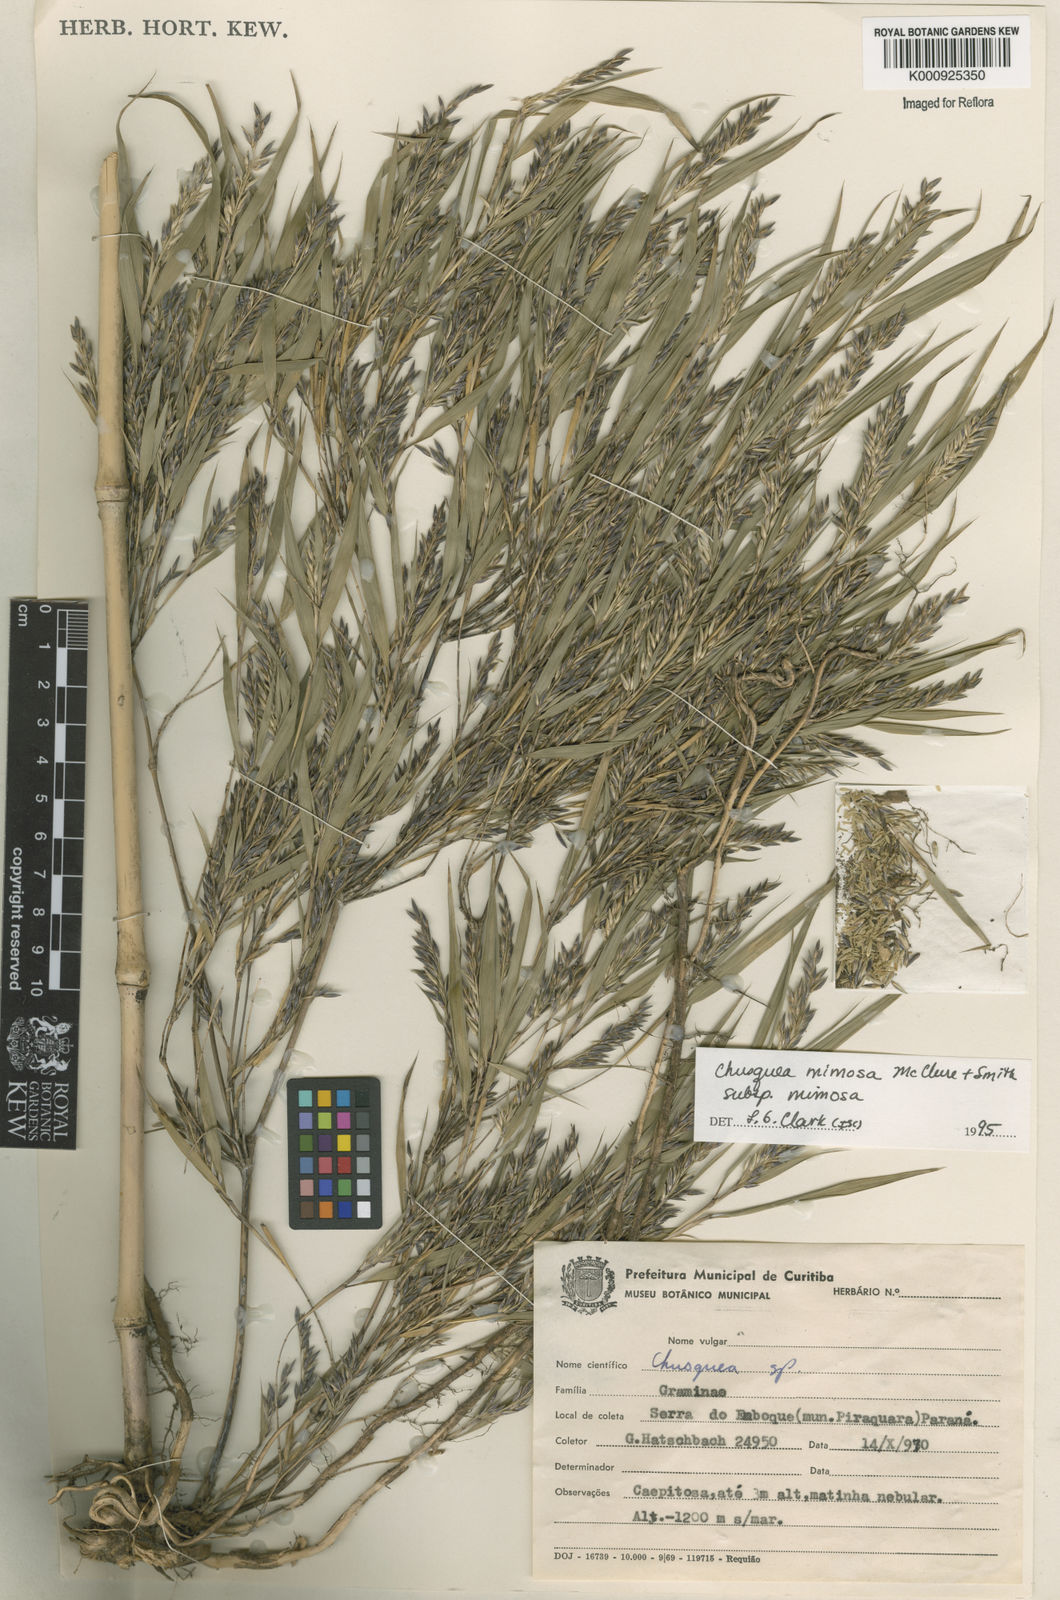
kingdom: Plantae
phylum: Tracheophyta
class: Liliopsida
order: Poales
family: Poaceae
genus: Chusquea
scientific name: Chusquea mimosa
